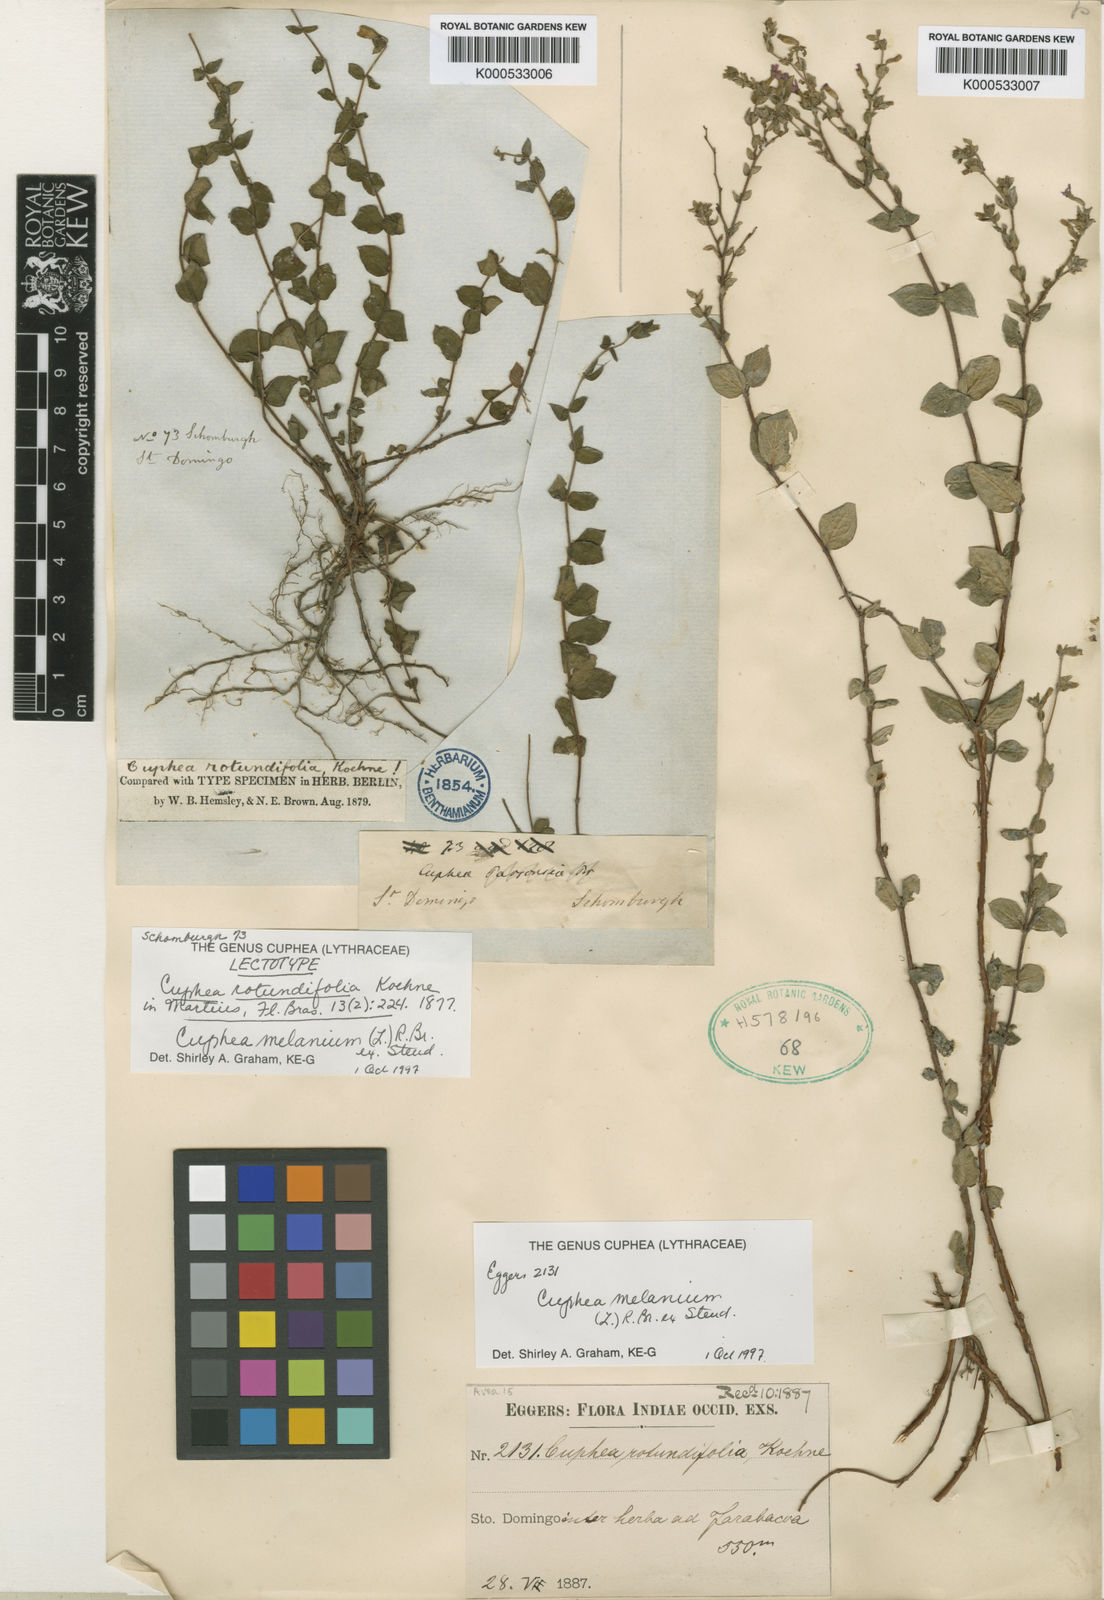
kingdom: Plantae
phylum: Tracheophyta
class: Magnoliopsida
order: Myrtales
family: Lythraceae
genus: Cuphea
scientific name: Cuphea melanium
